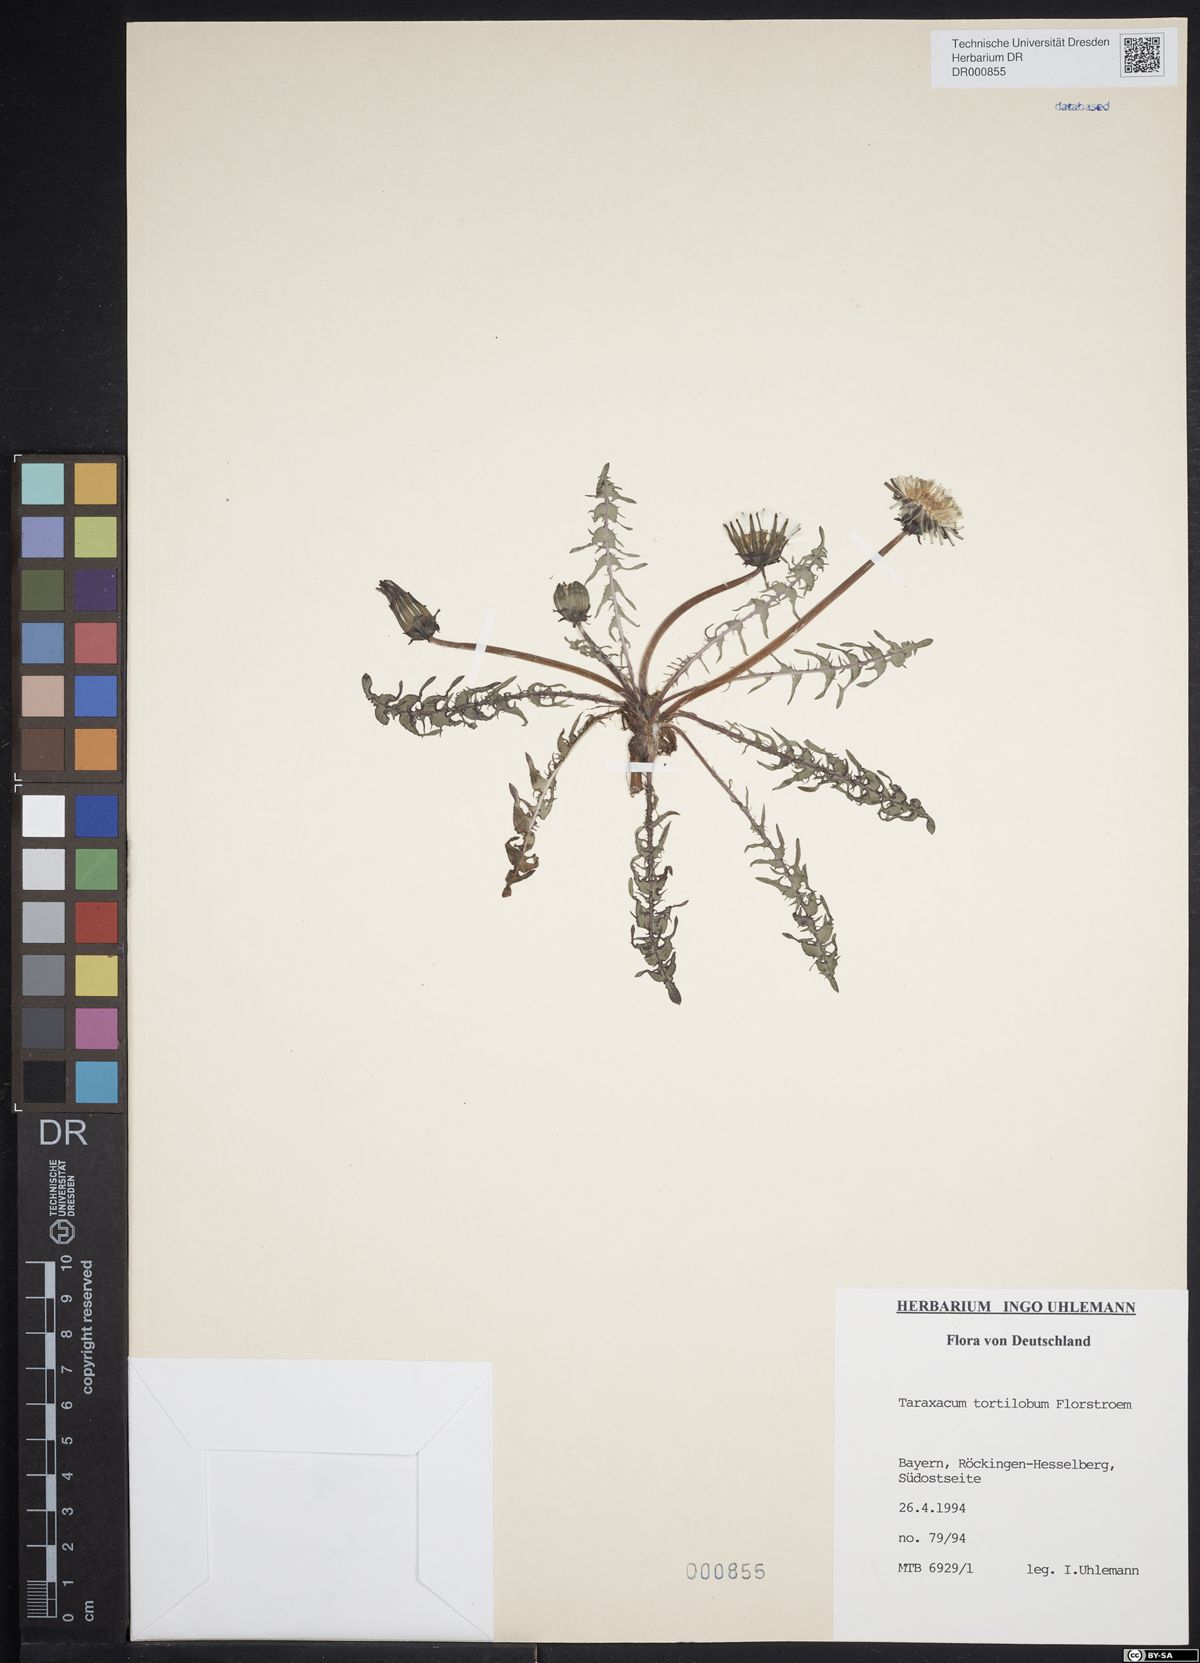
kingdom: Plantae
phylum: Tracheophyta
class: Magnoliopsida
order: Asterales
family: Asteraceae
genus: Taraxacum
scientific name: Taraxacum tortilobum
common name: Twisted-lobed dandelion
